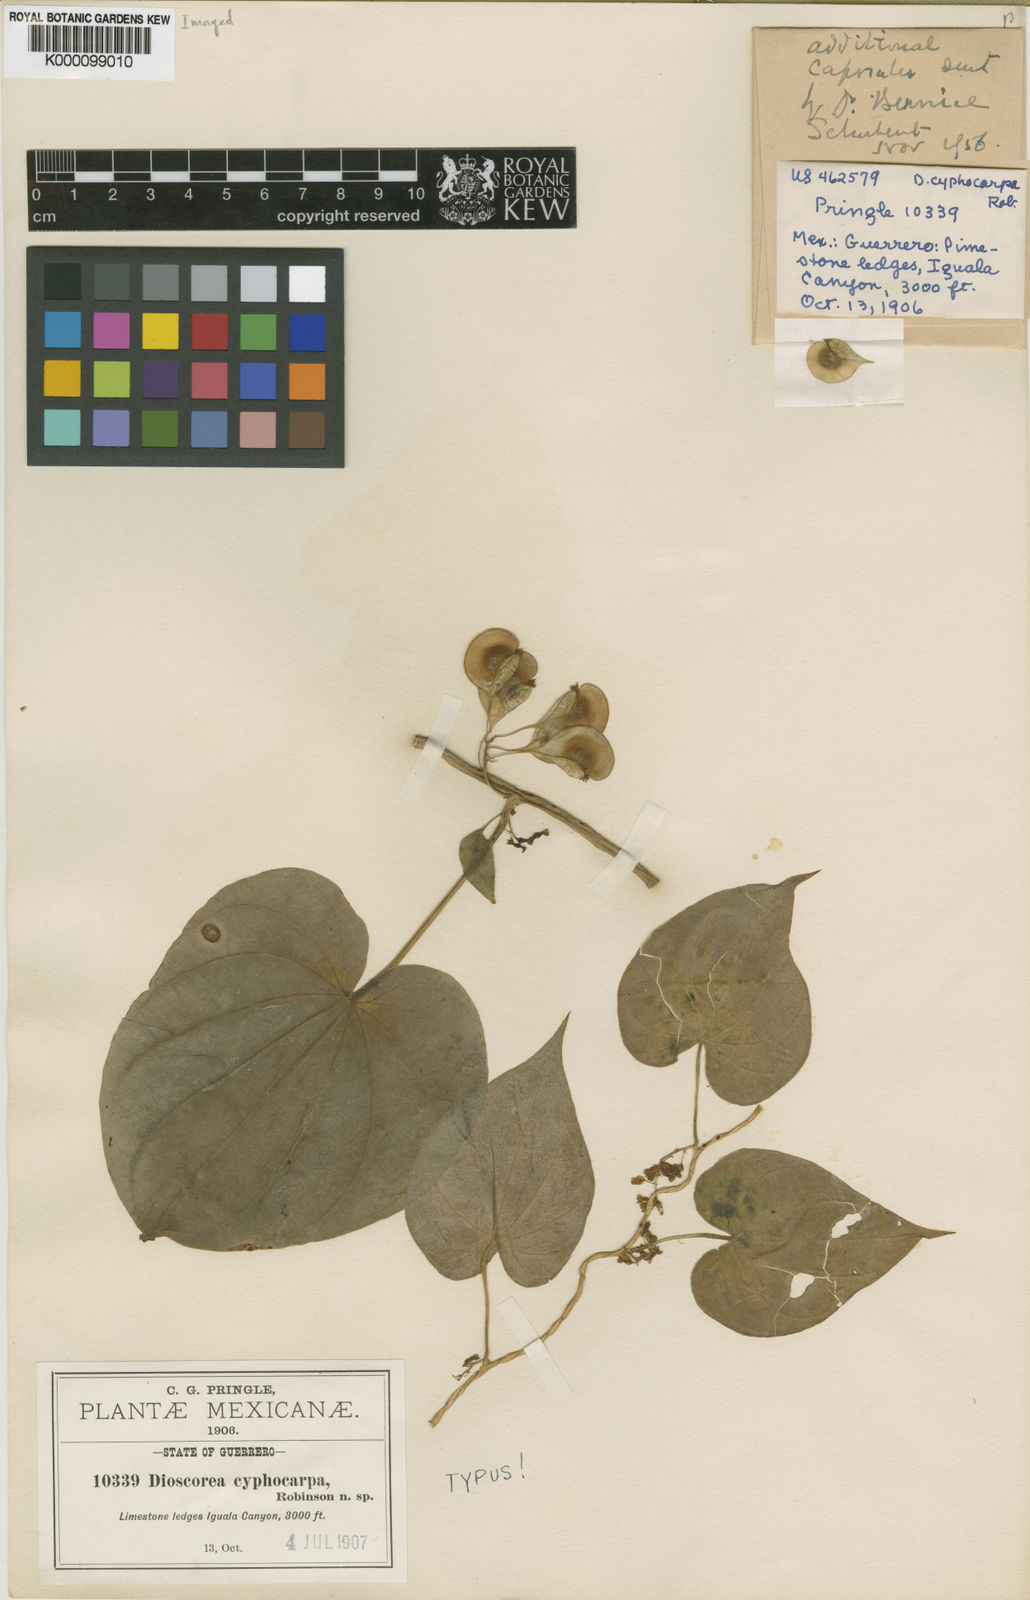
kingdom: Plantae
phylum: Tracheophyta
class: Liliopsida
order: Dioscoreales
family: Dioscoreaceae
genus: Dioscorea
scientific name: Dioscorea cyphocarpa
